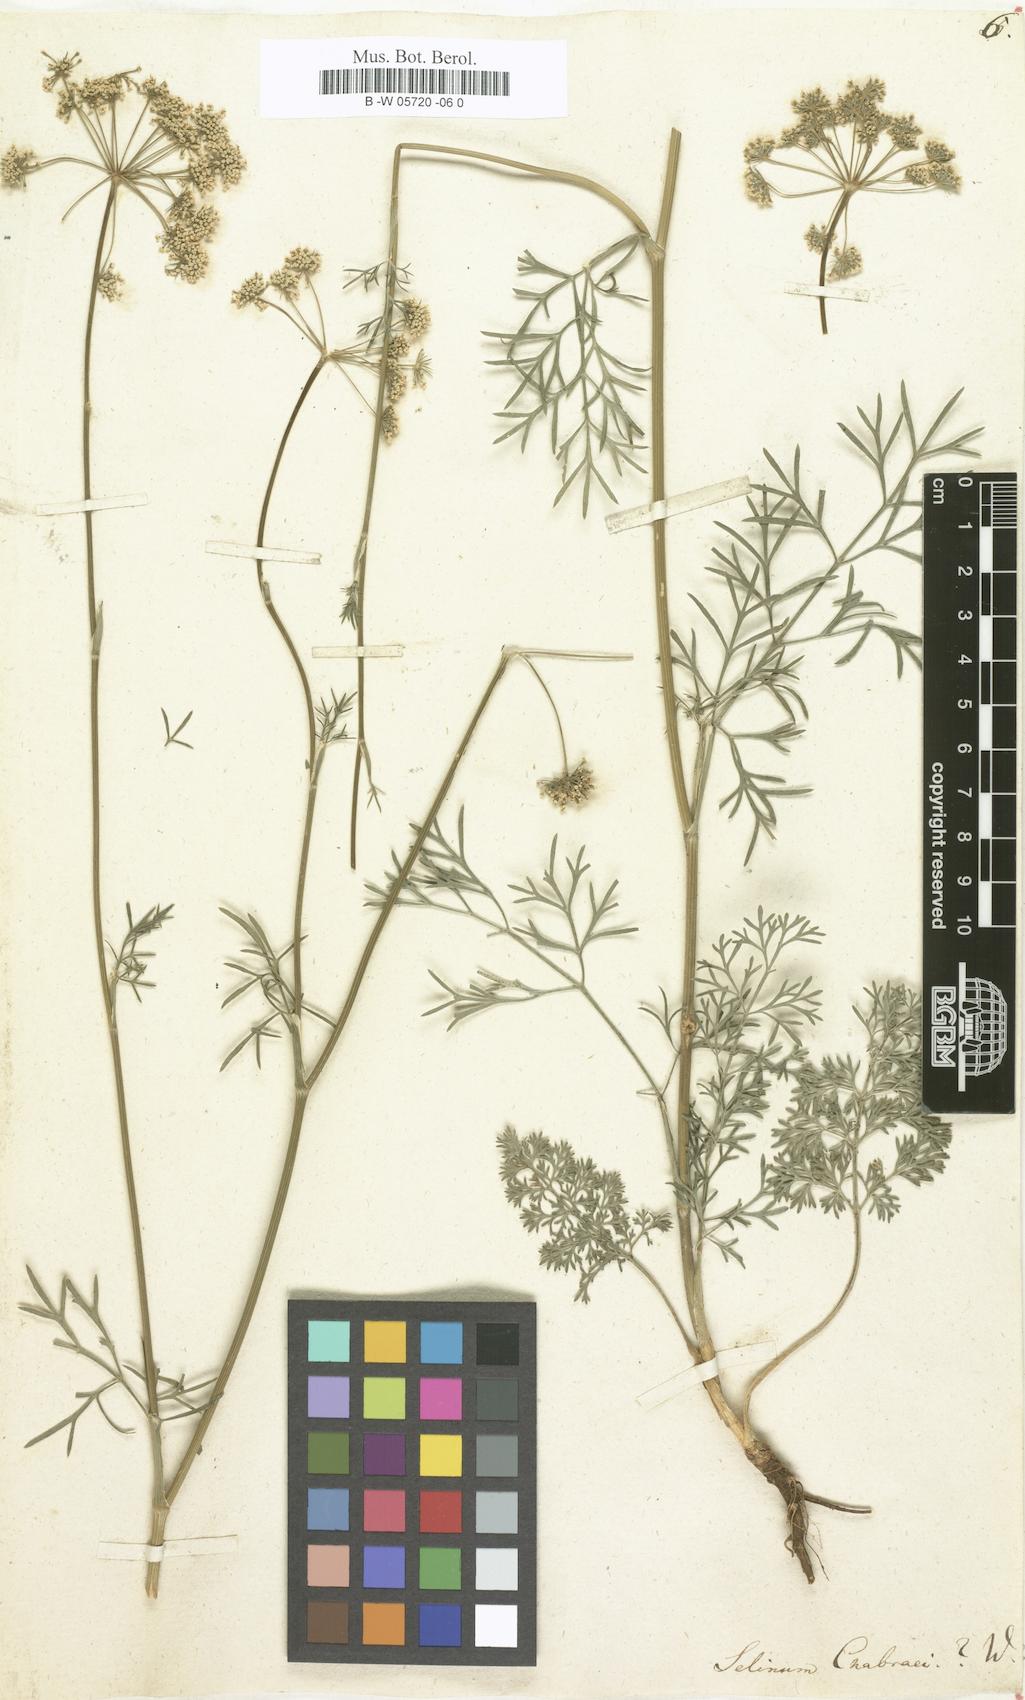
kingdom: Plantae
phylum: Tracheophyta
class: Magnoliopsida
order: Apiales
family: Apiaceae
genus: Selinum
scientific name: Selinum chabraei
